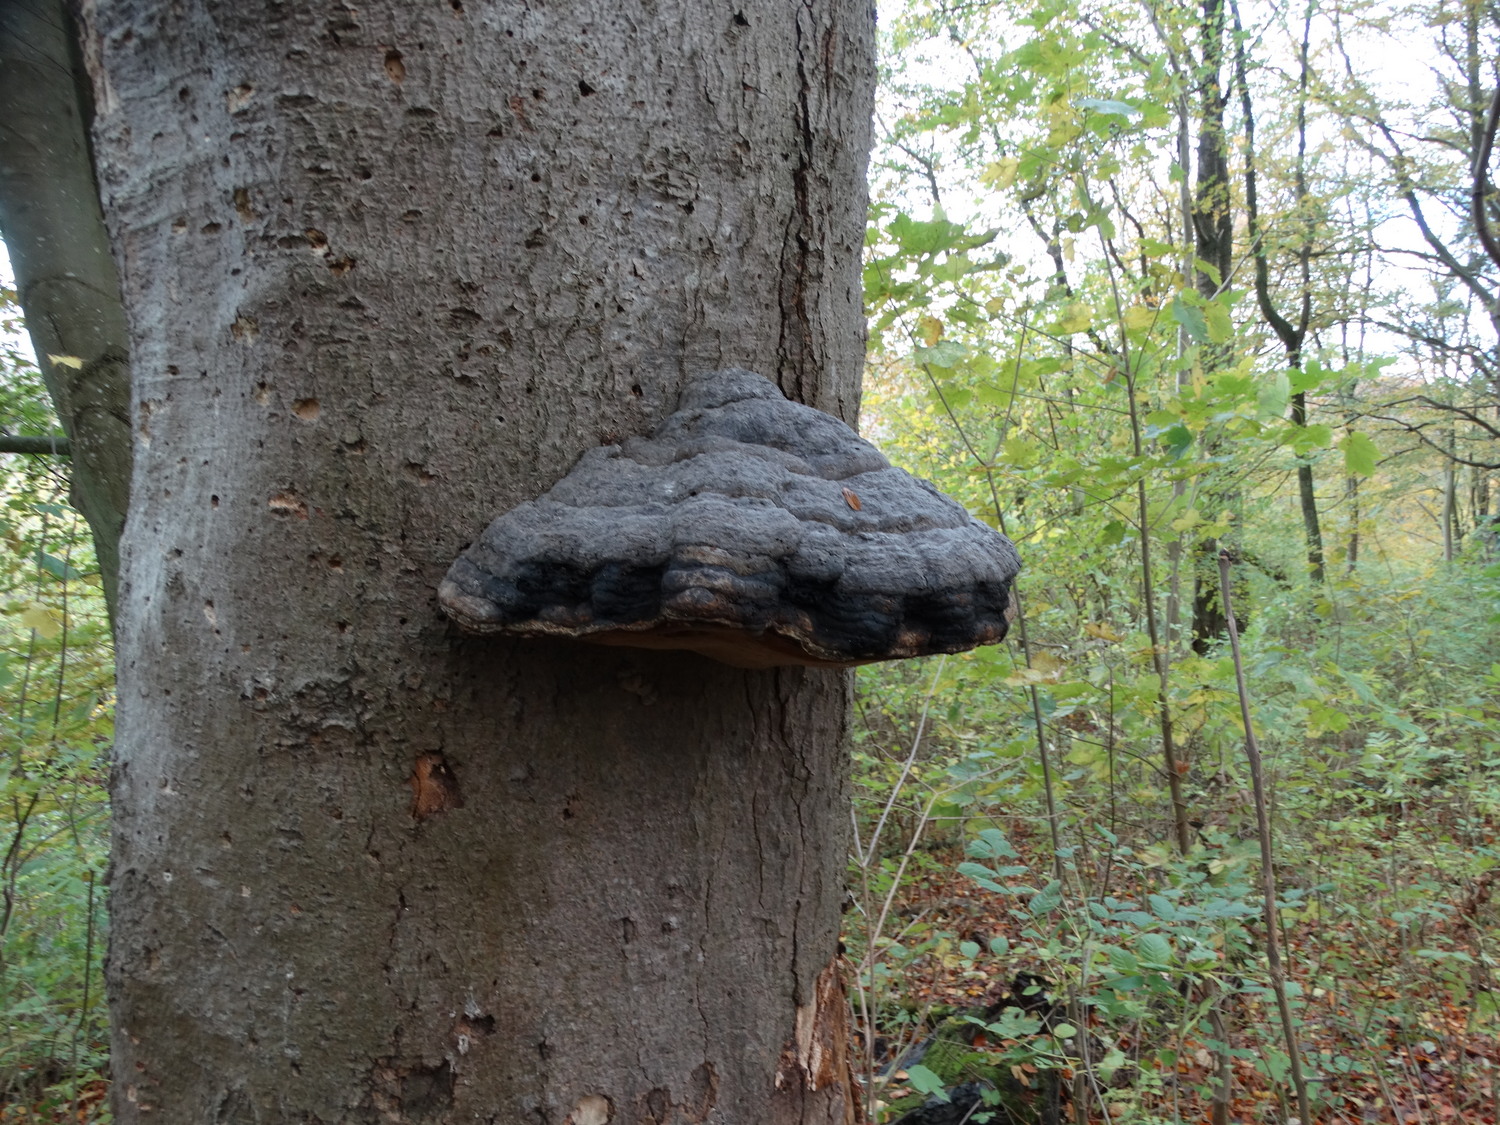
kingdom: Fungi
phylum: Basidiomycota
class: Agaricomycetes
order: Polyporales
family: Polyporaceae
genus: Fomes
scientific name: Fomes fomentarius
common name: tøndersvamp
